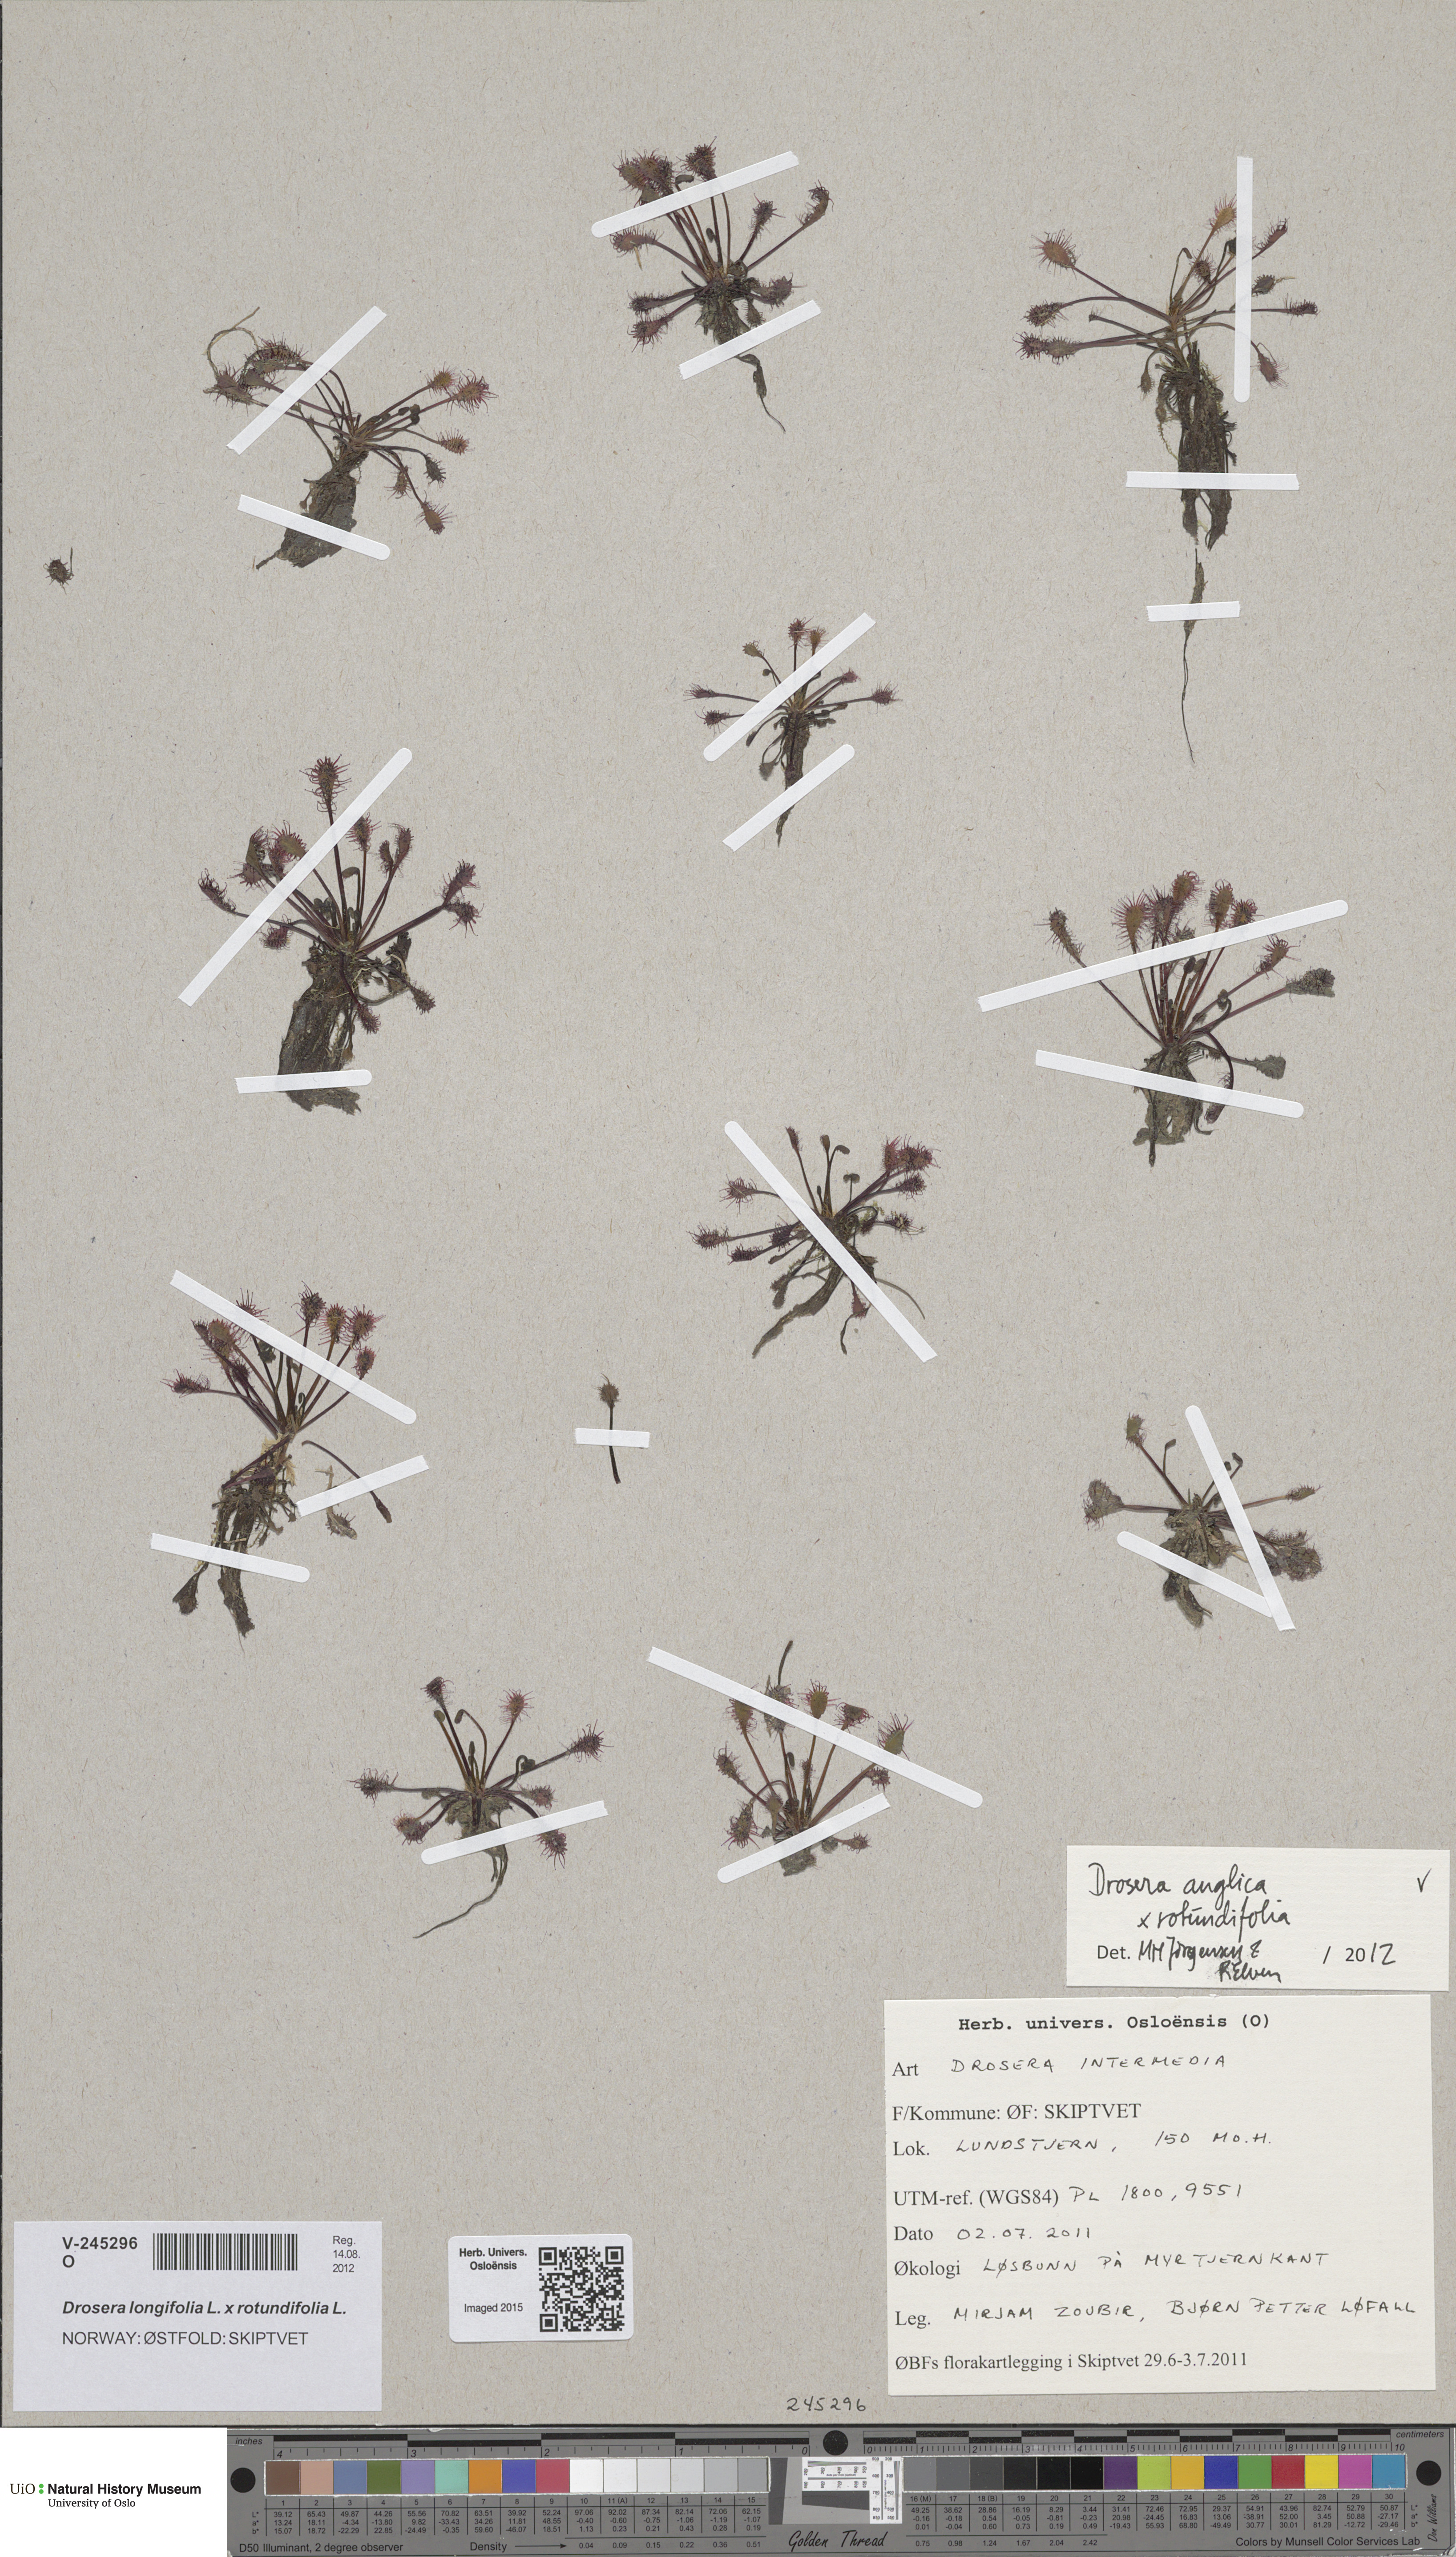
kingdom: Plantae
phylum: Tracheophyta
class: Magnoliopsida
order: Caryophyllales
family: Droseraceae
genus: Drosera
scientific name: Drosera
